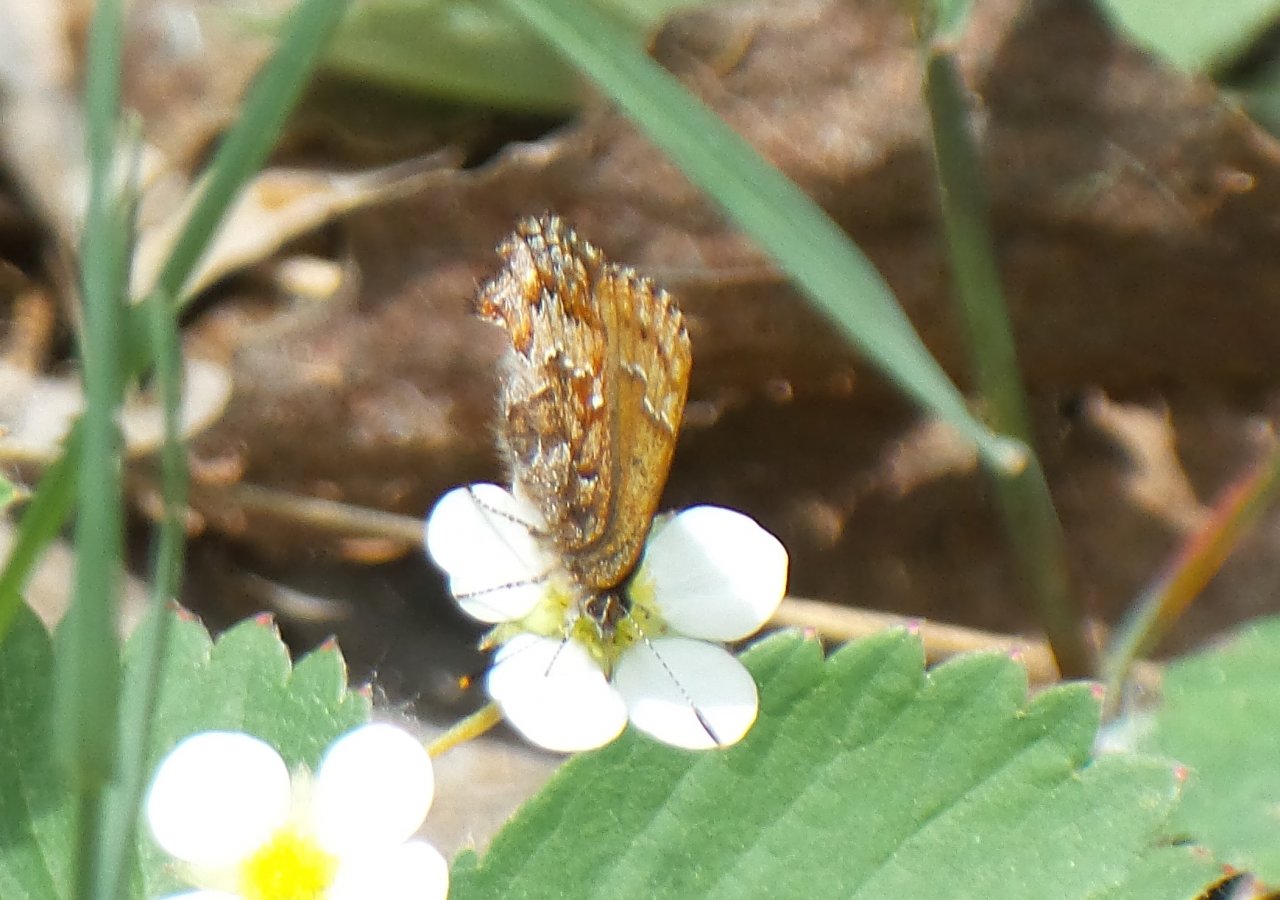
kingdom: Animalia
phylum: Arthropoda
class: Insecta
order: Lepidoptera
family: Lycaenidae
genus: Incisalia
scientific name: Incisalia niphon
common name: Eastern Pine Elfin
